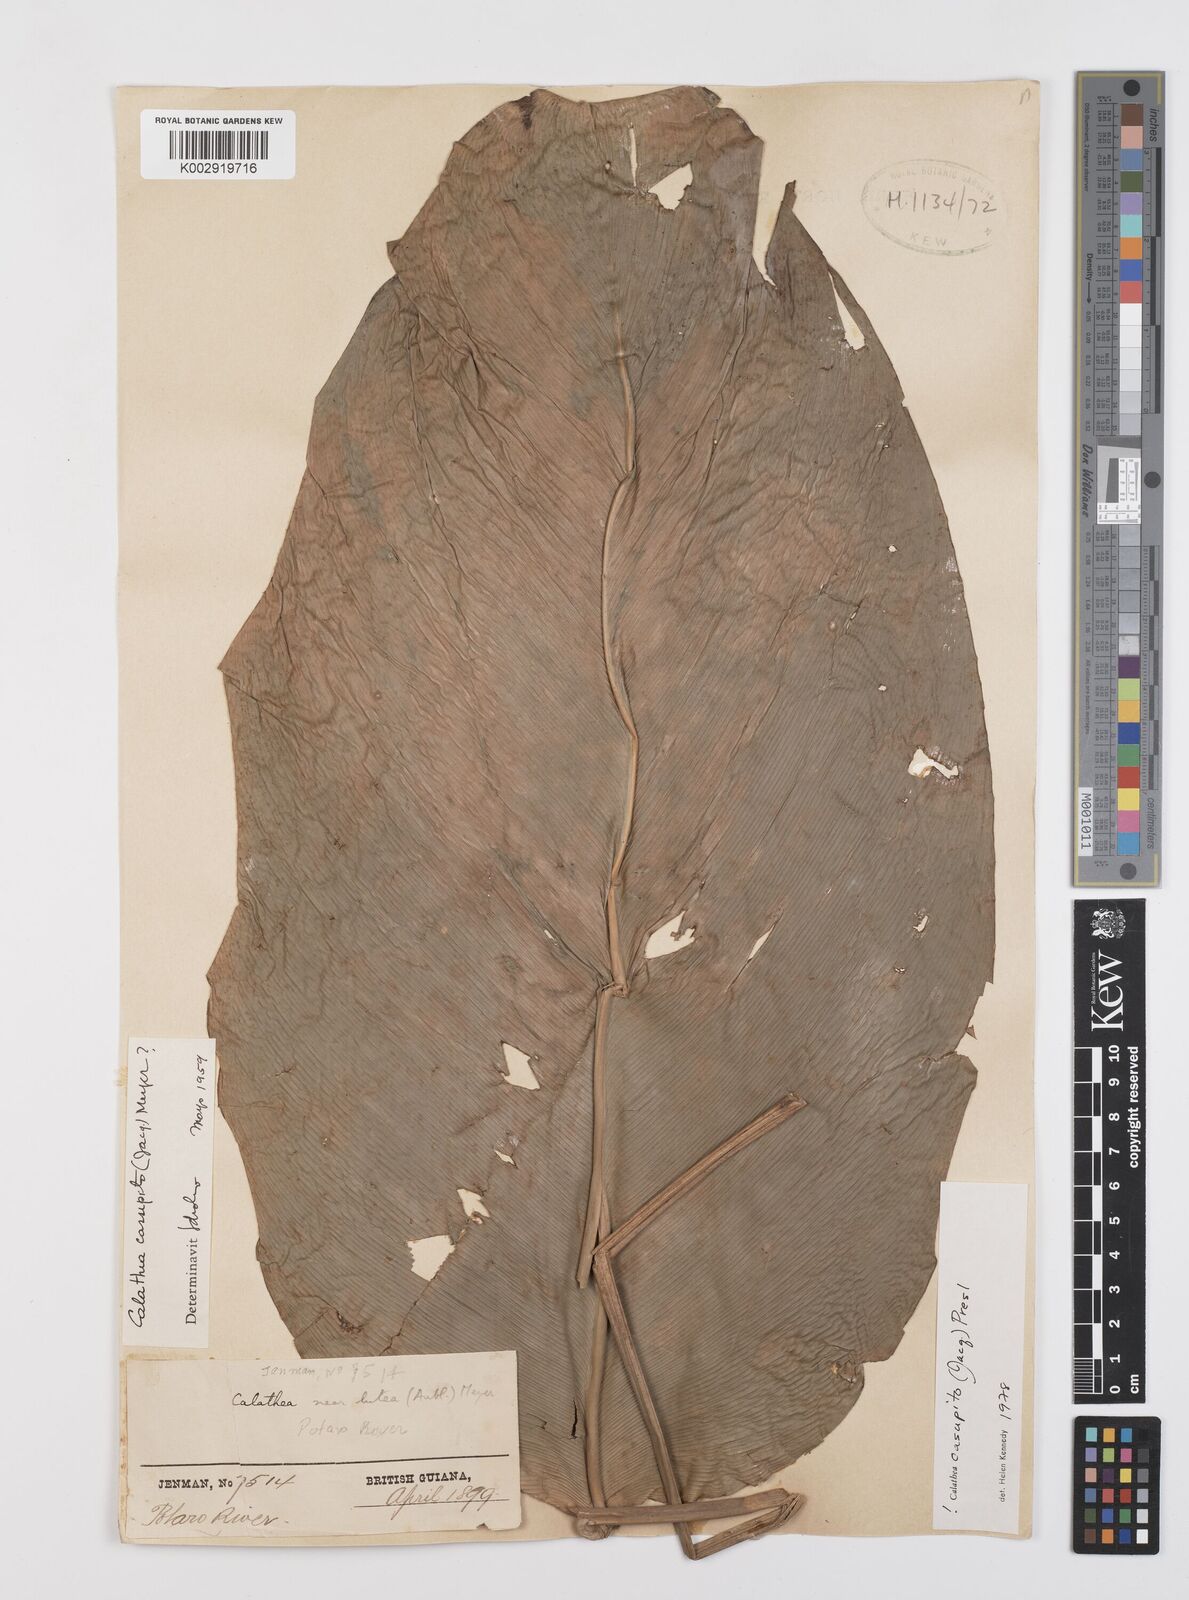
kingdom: Plantae
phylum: Tracheophyta
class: Liliopsida
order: Zingiberales
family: Marantaceae
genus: Calathea
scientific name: Calathea casupito
